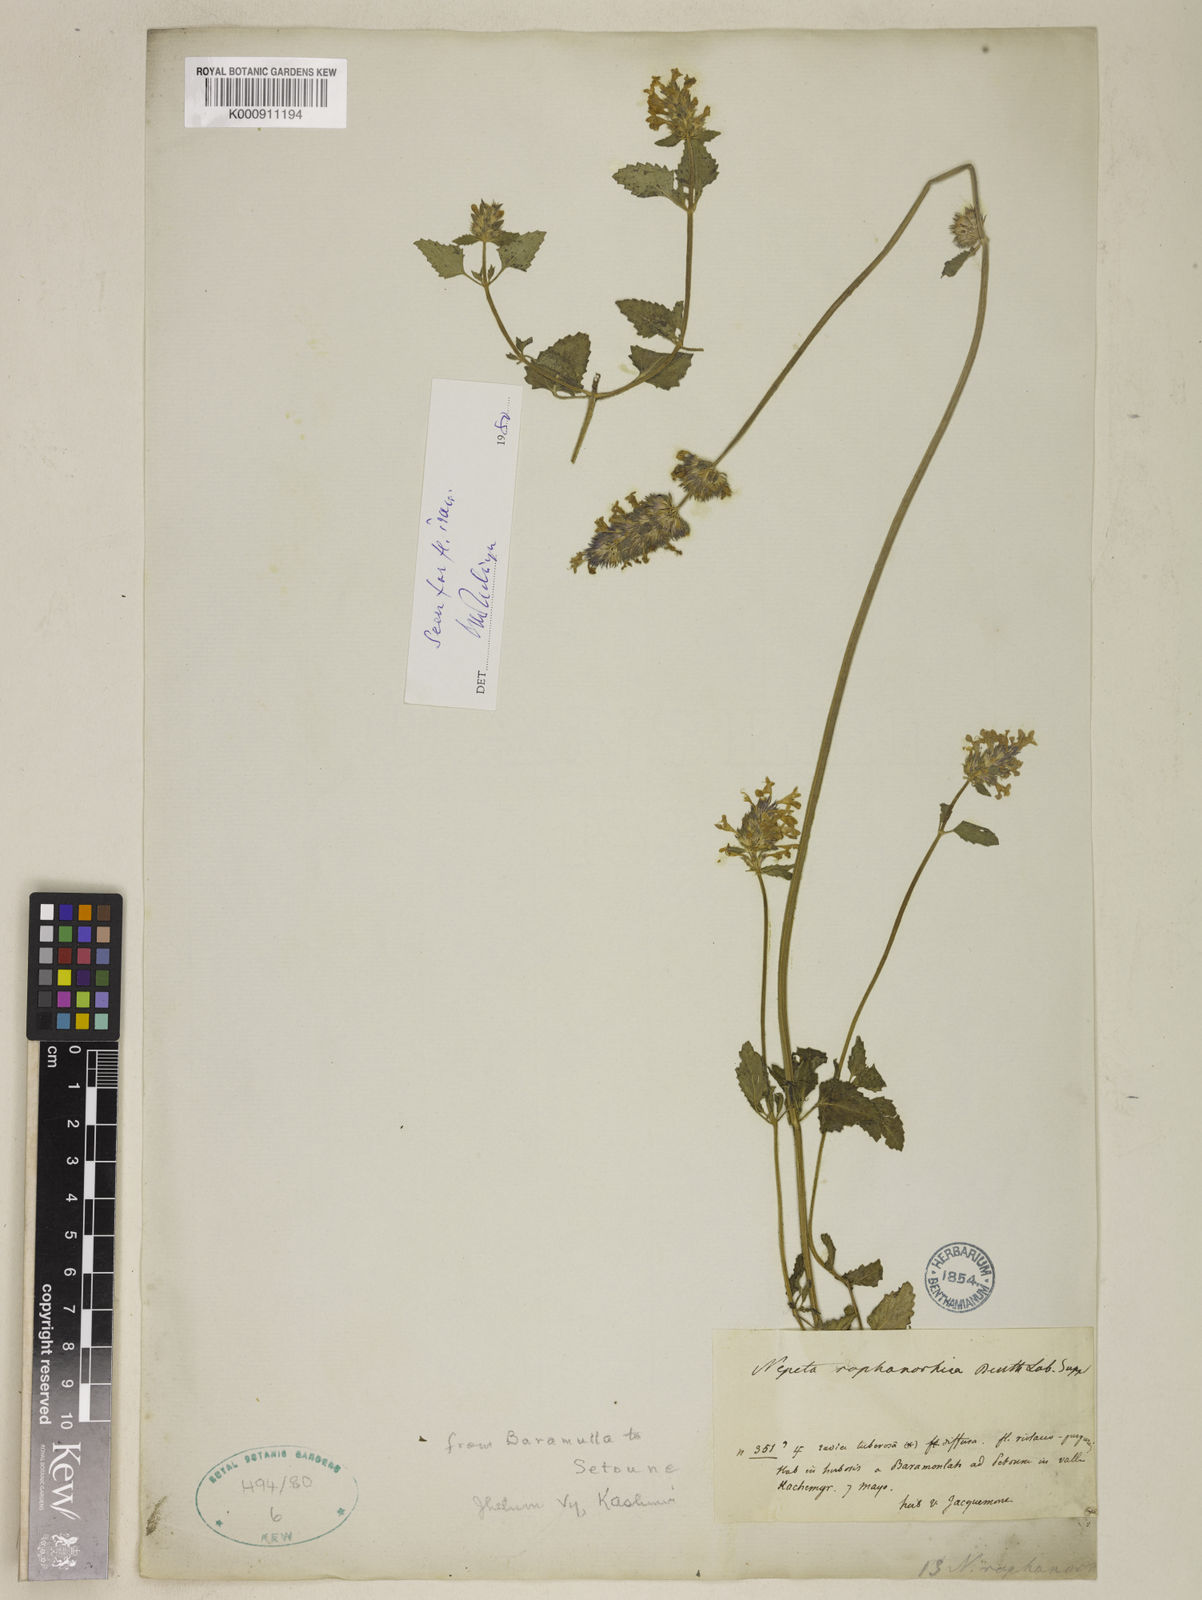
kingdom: Plantae
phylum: Tracheophyta
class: Magnoliopsida
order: Lamiales
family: Lamiaceae
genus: Nepeta
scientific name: Nepeta raphanorhiza
